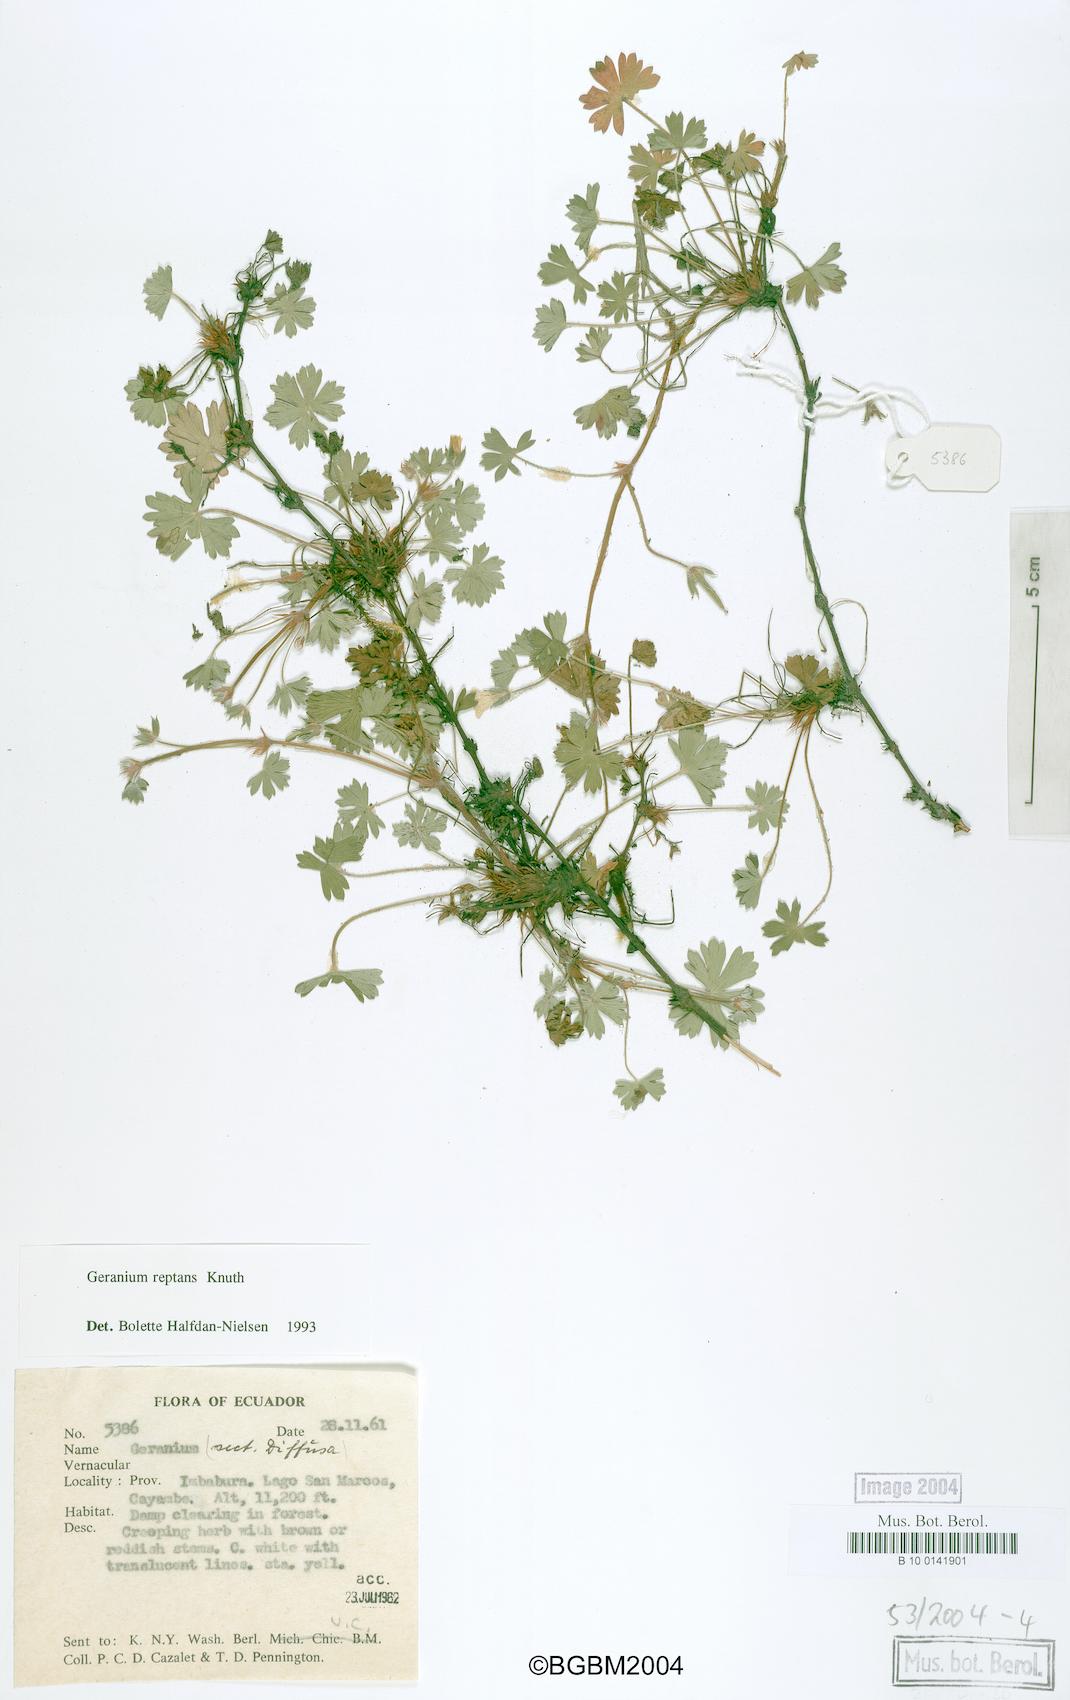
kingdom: Plantae
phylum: Tracheophyta
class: Magnoliopsida
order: Geraniales
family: Geraniaceae
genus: Geranium
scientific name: Geranium reptans
